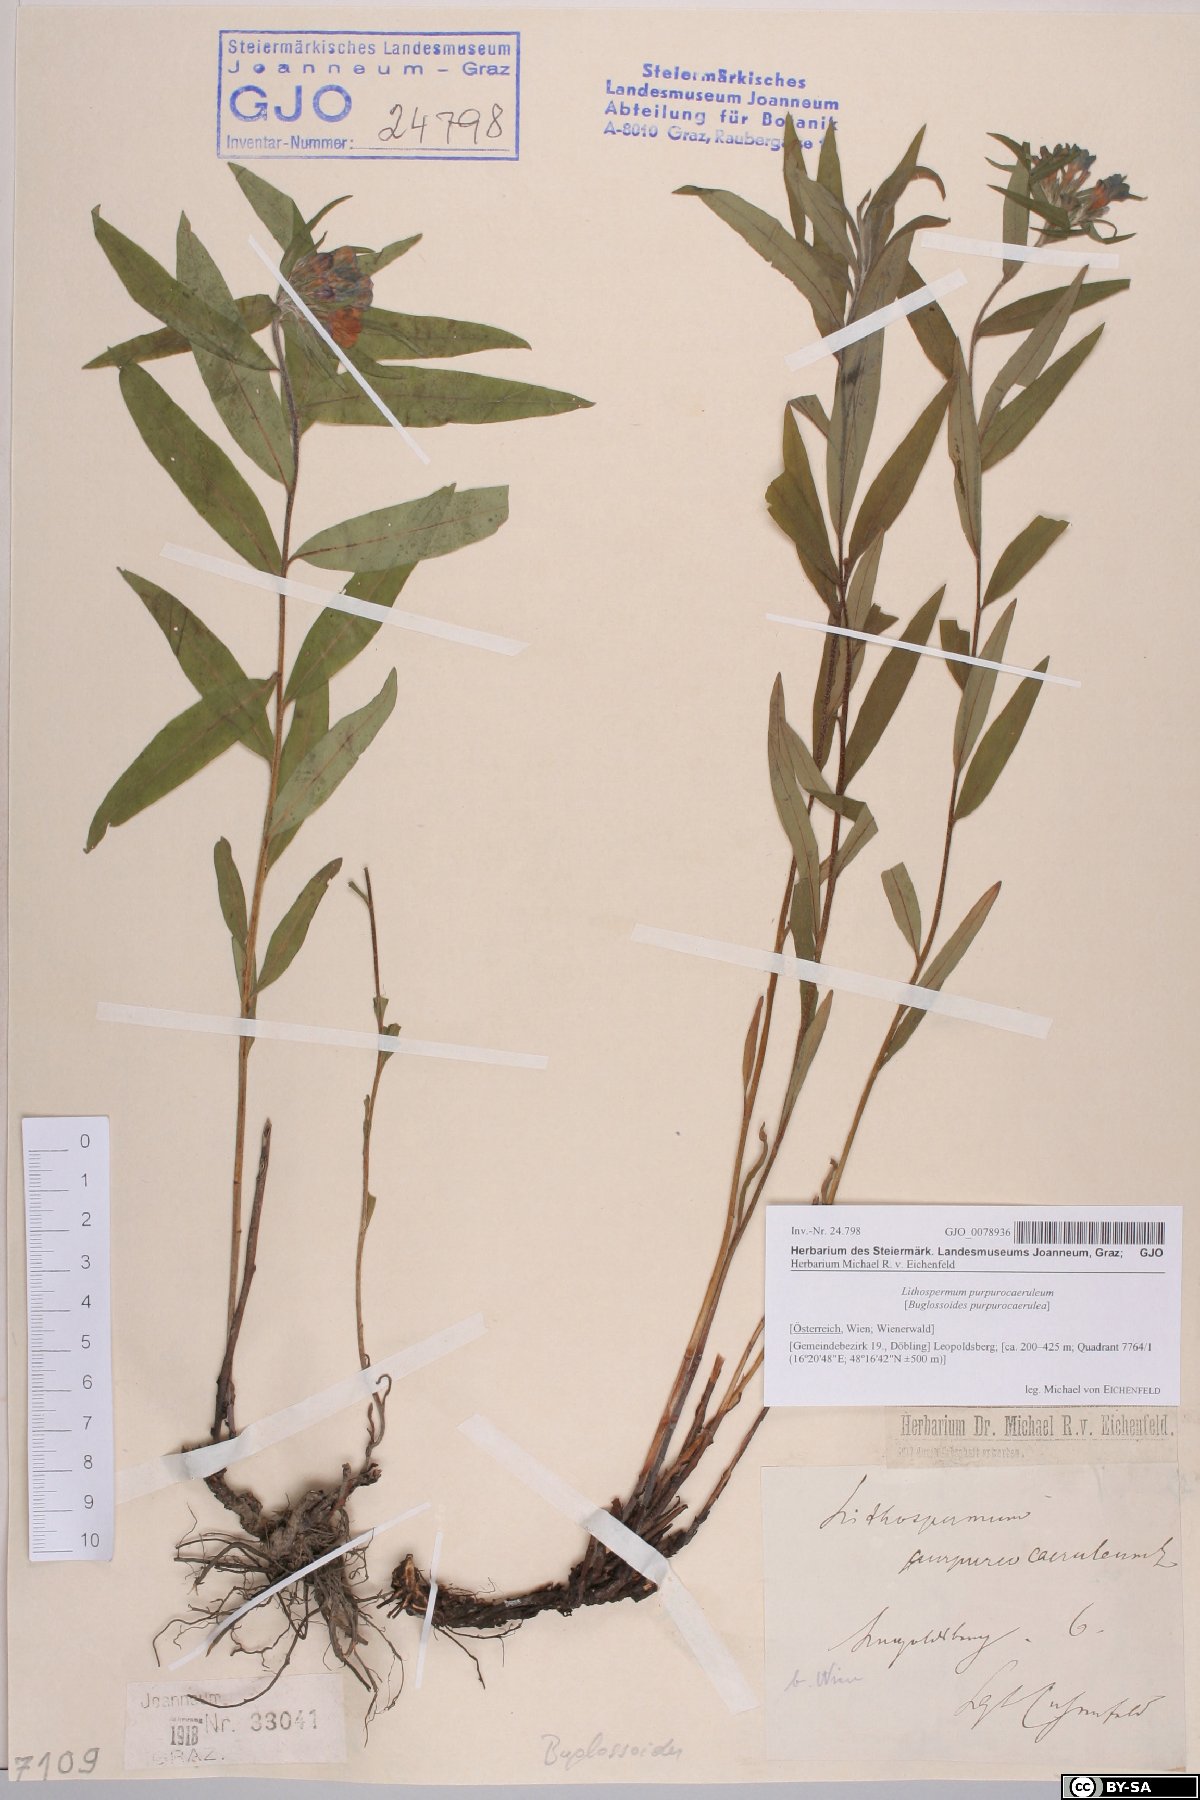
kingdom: Plantae
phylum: Tracheophyta
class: Magnoliopsida
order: Boraginales
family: Boraginaceae
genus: Aegonychon
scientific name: Aegonychon purpurocaeruleum
